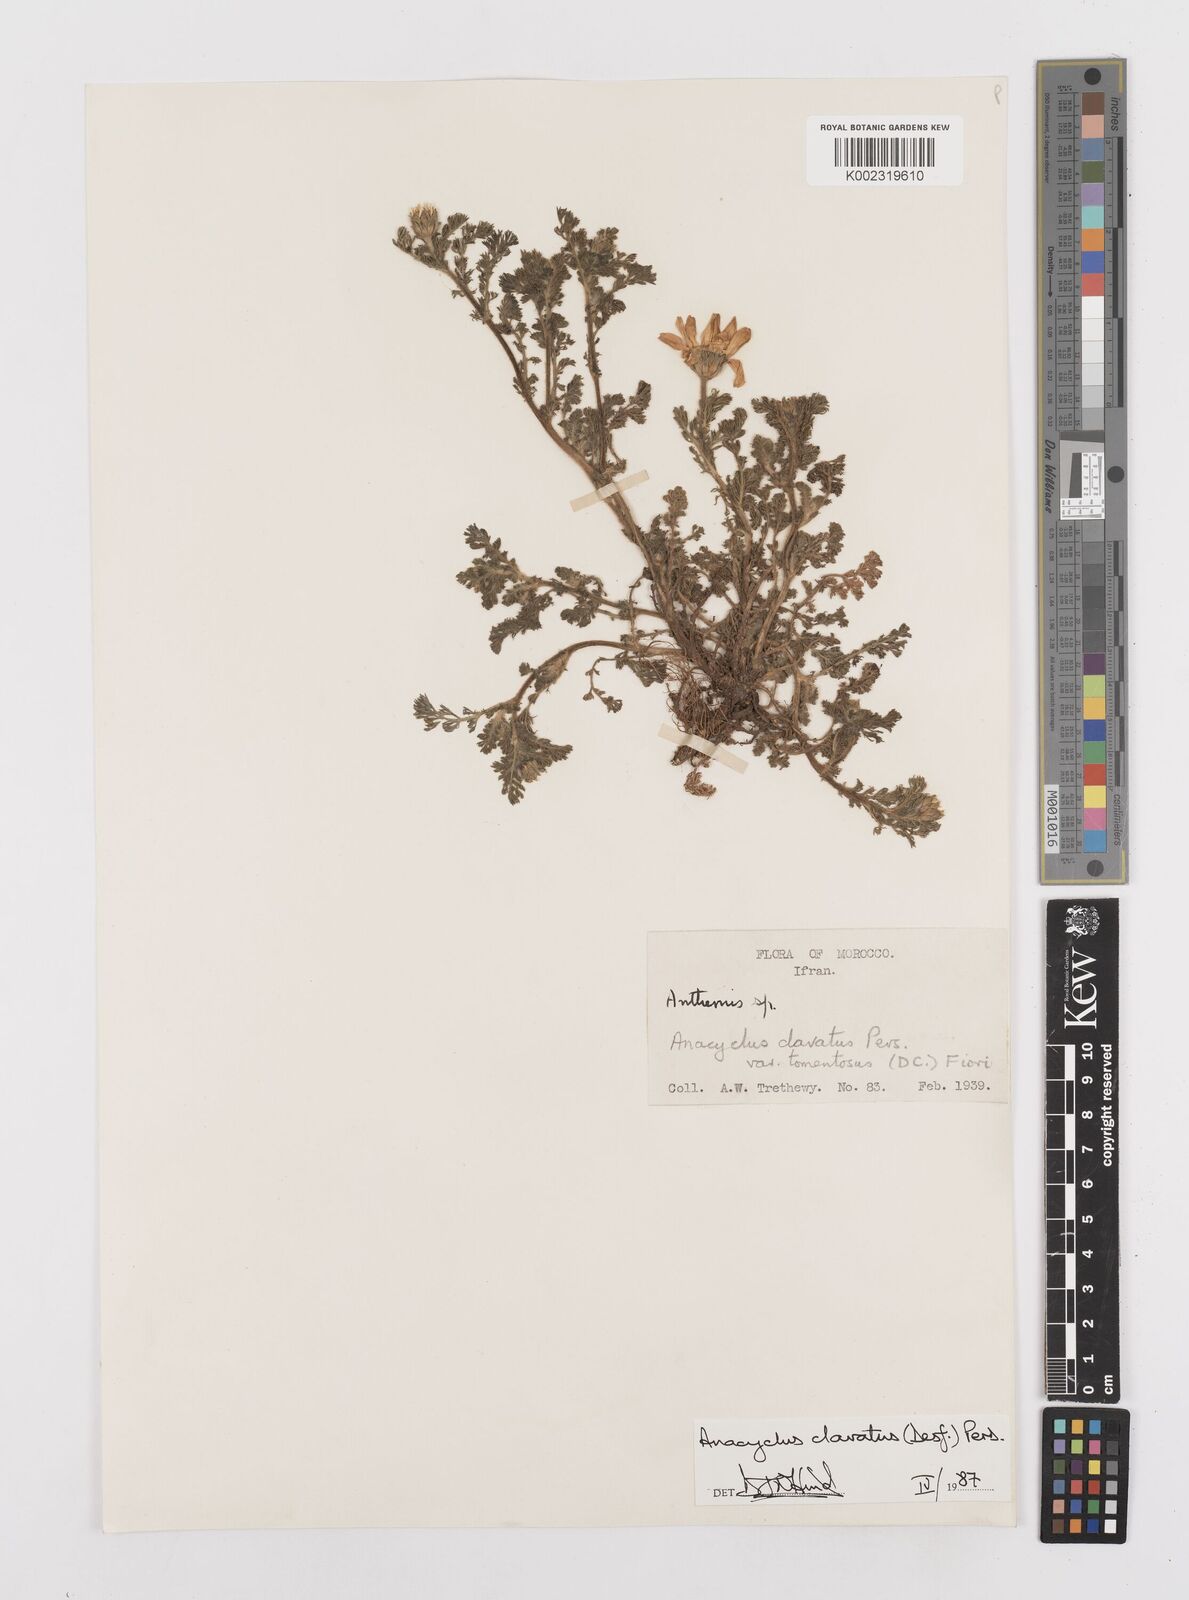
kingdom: Plantae
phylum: Tracheophyta
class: Magnoliopsida
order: Asterales
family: Asteraceae
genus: Anacyclus
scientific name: Anacyclus clavatus
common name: Whitebuttons
